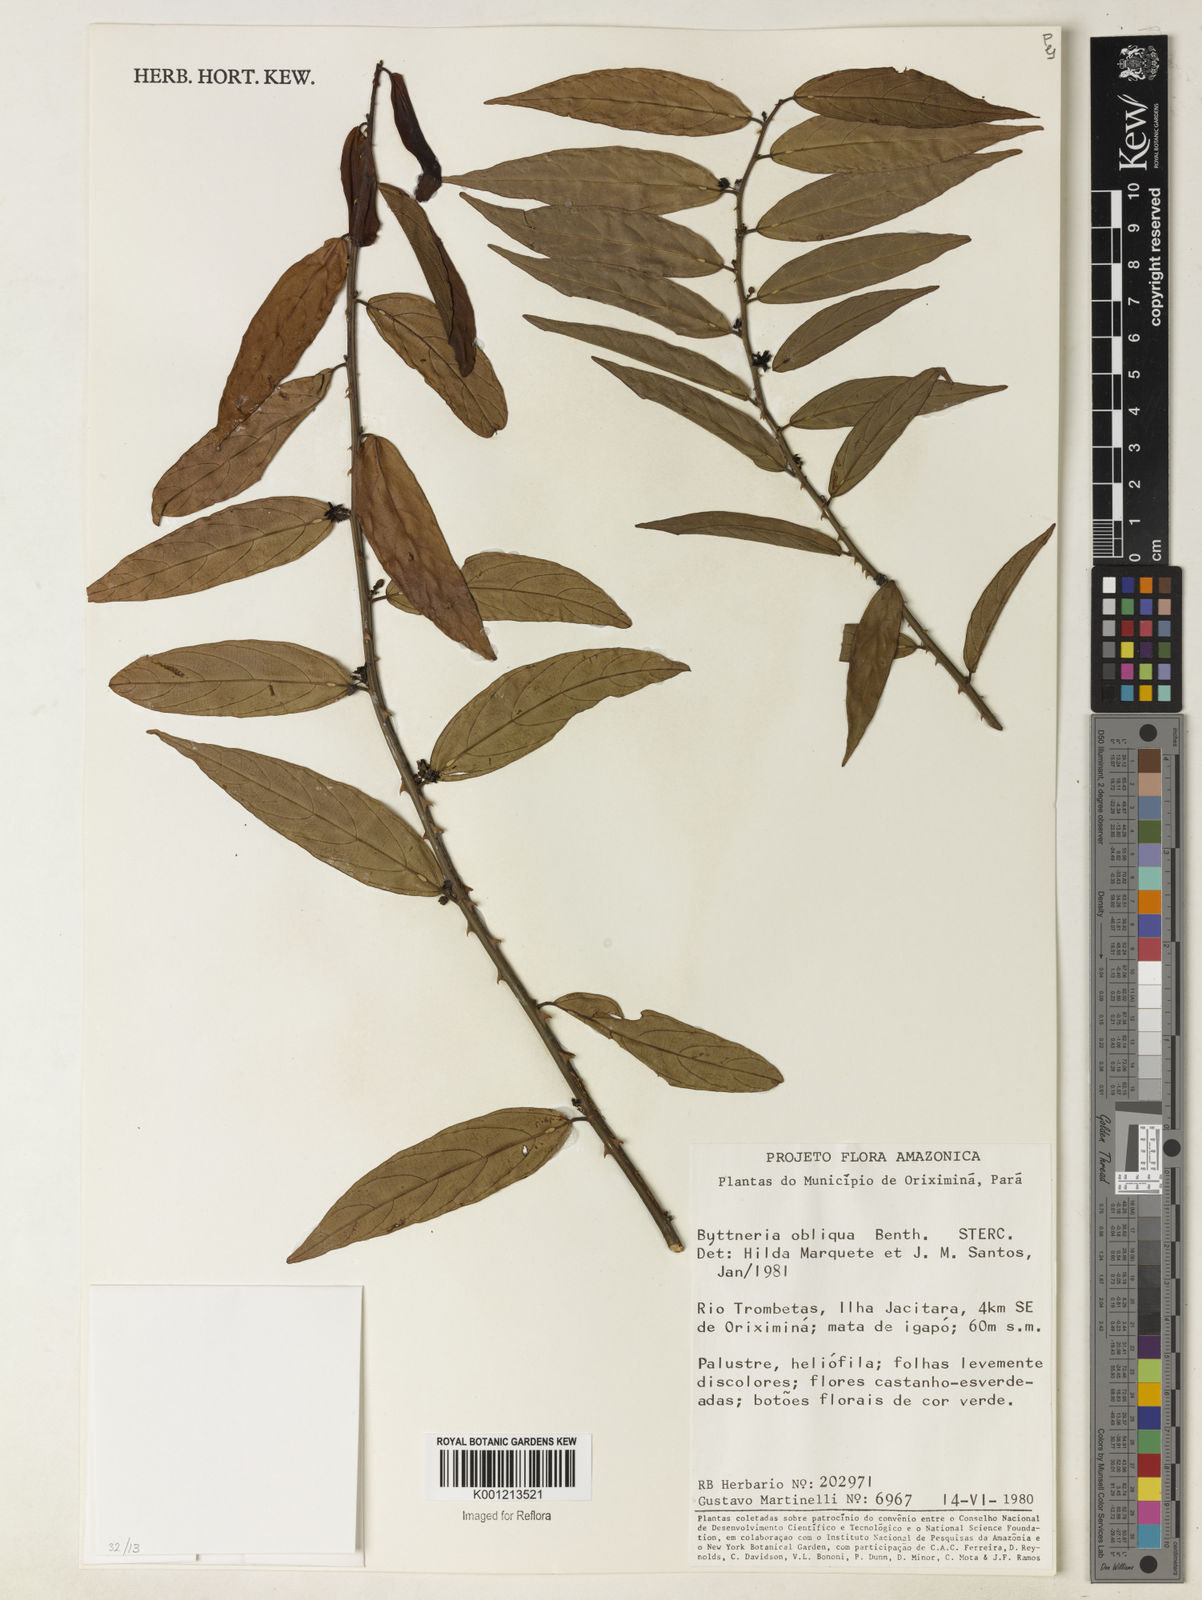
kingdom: Plantae
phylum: Tracheophyta
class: Magnoliopsida
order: Malvales
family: Malvaceae
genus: Byttneria
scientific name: Byttneria obliqua
